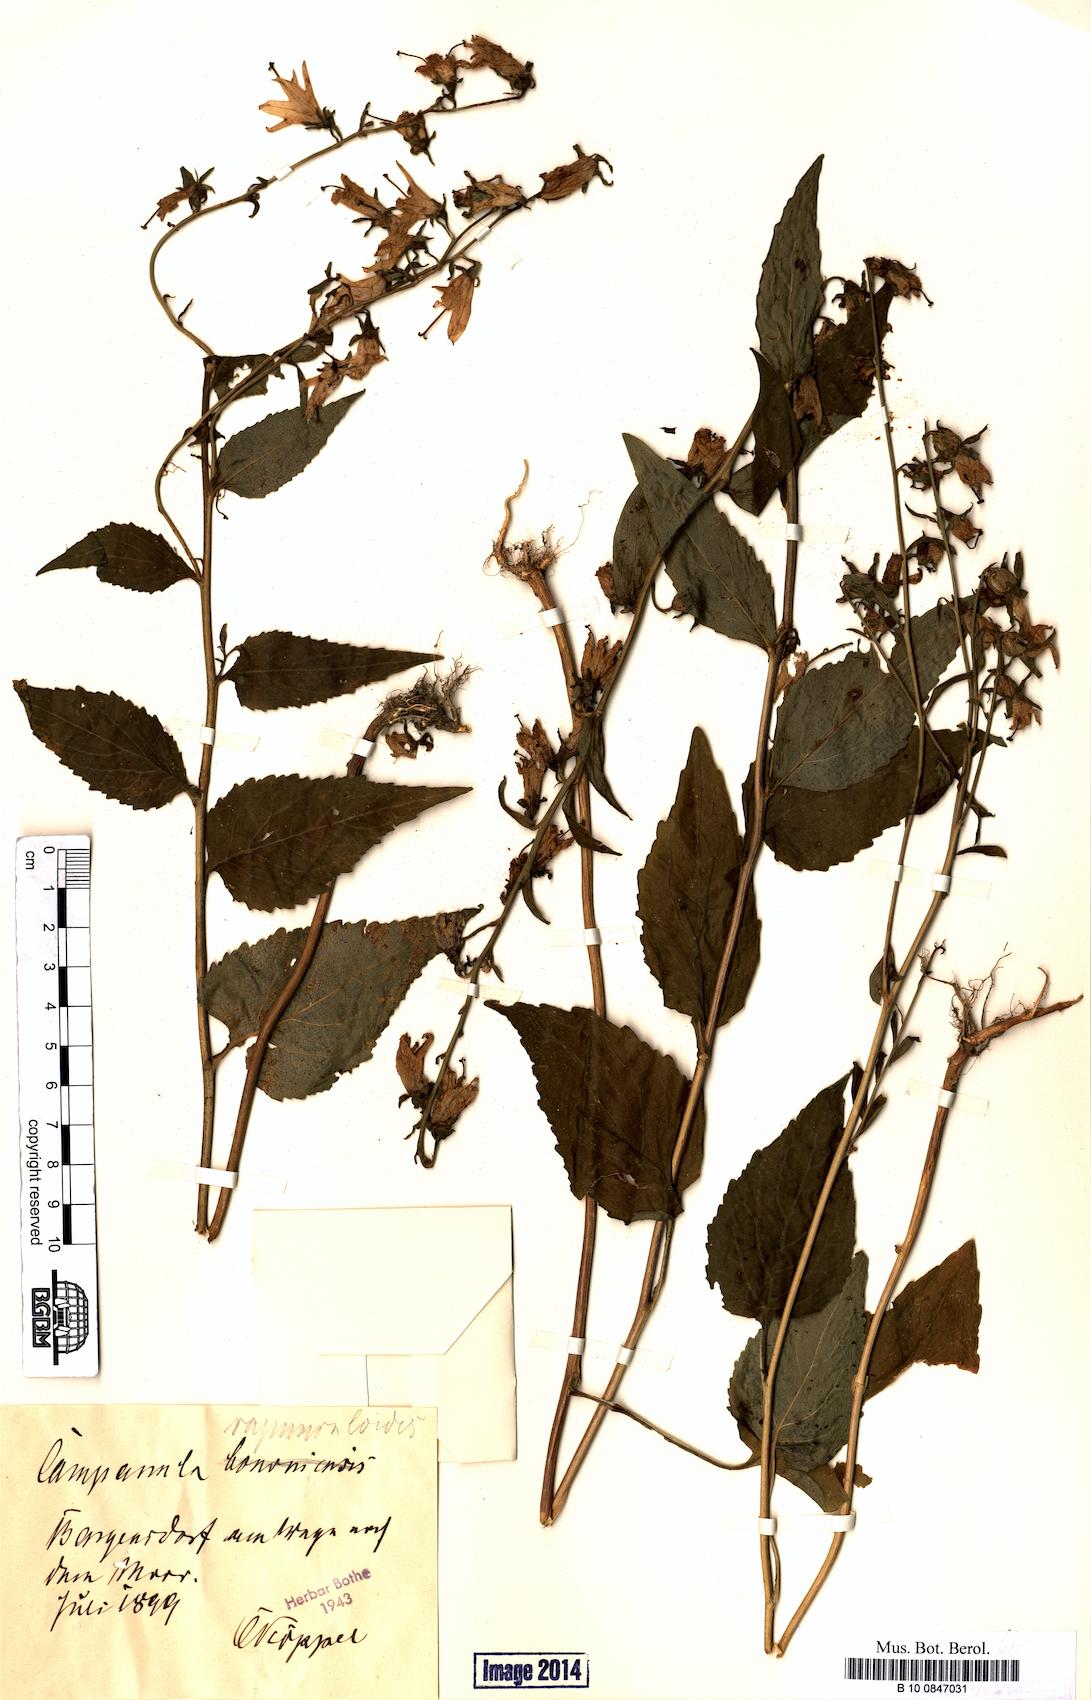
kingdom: Plantae
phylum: Tracheophyta
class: Magnoliopsida
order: Asterales
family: Campanulaceae
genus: Campanula
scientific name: Campanula rapunculoides
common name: Creeping bellflower
